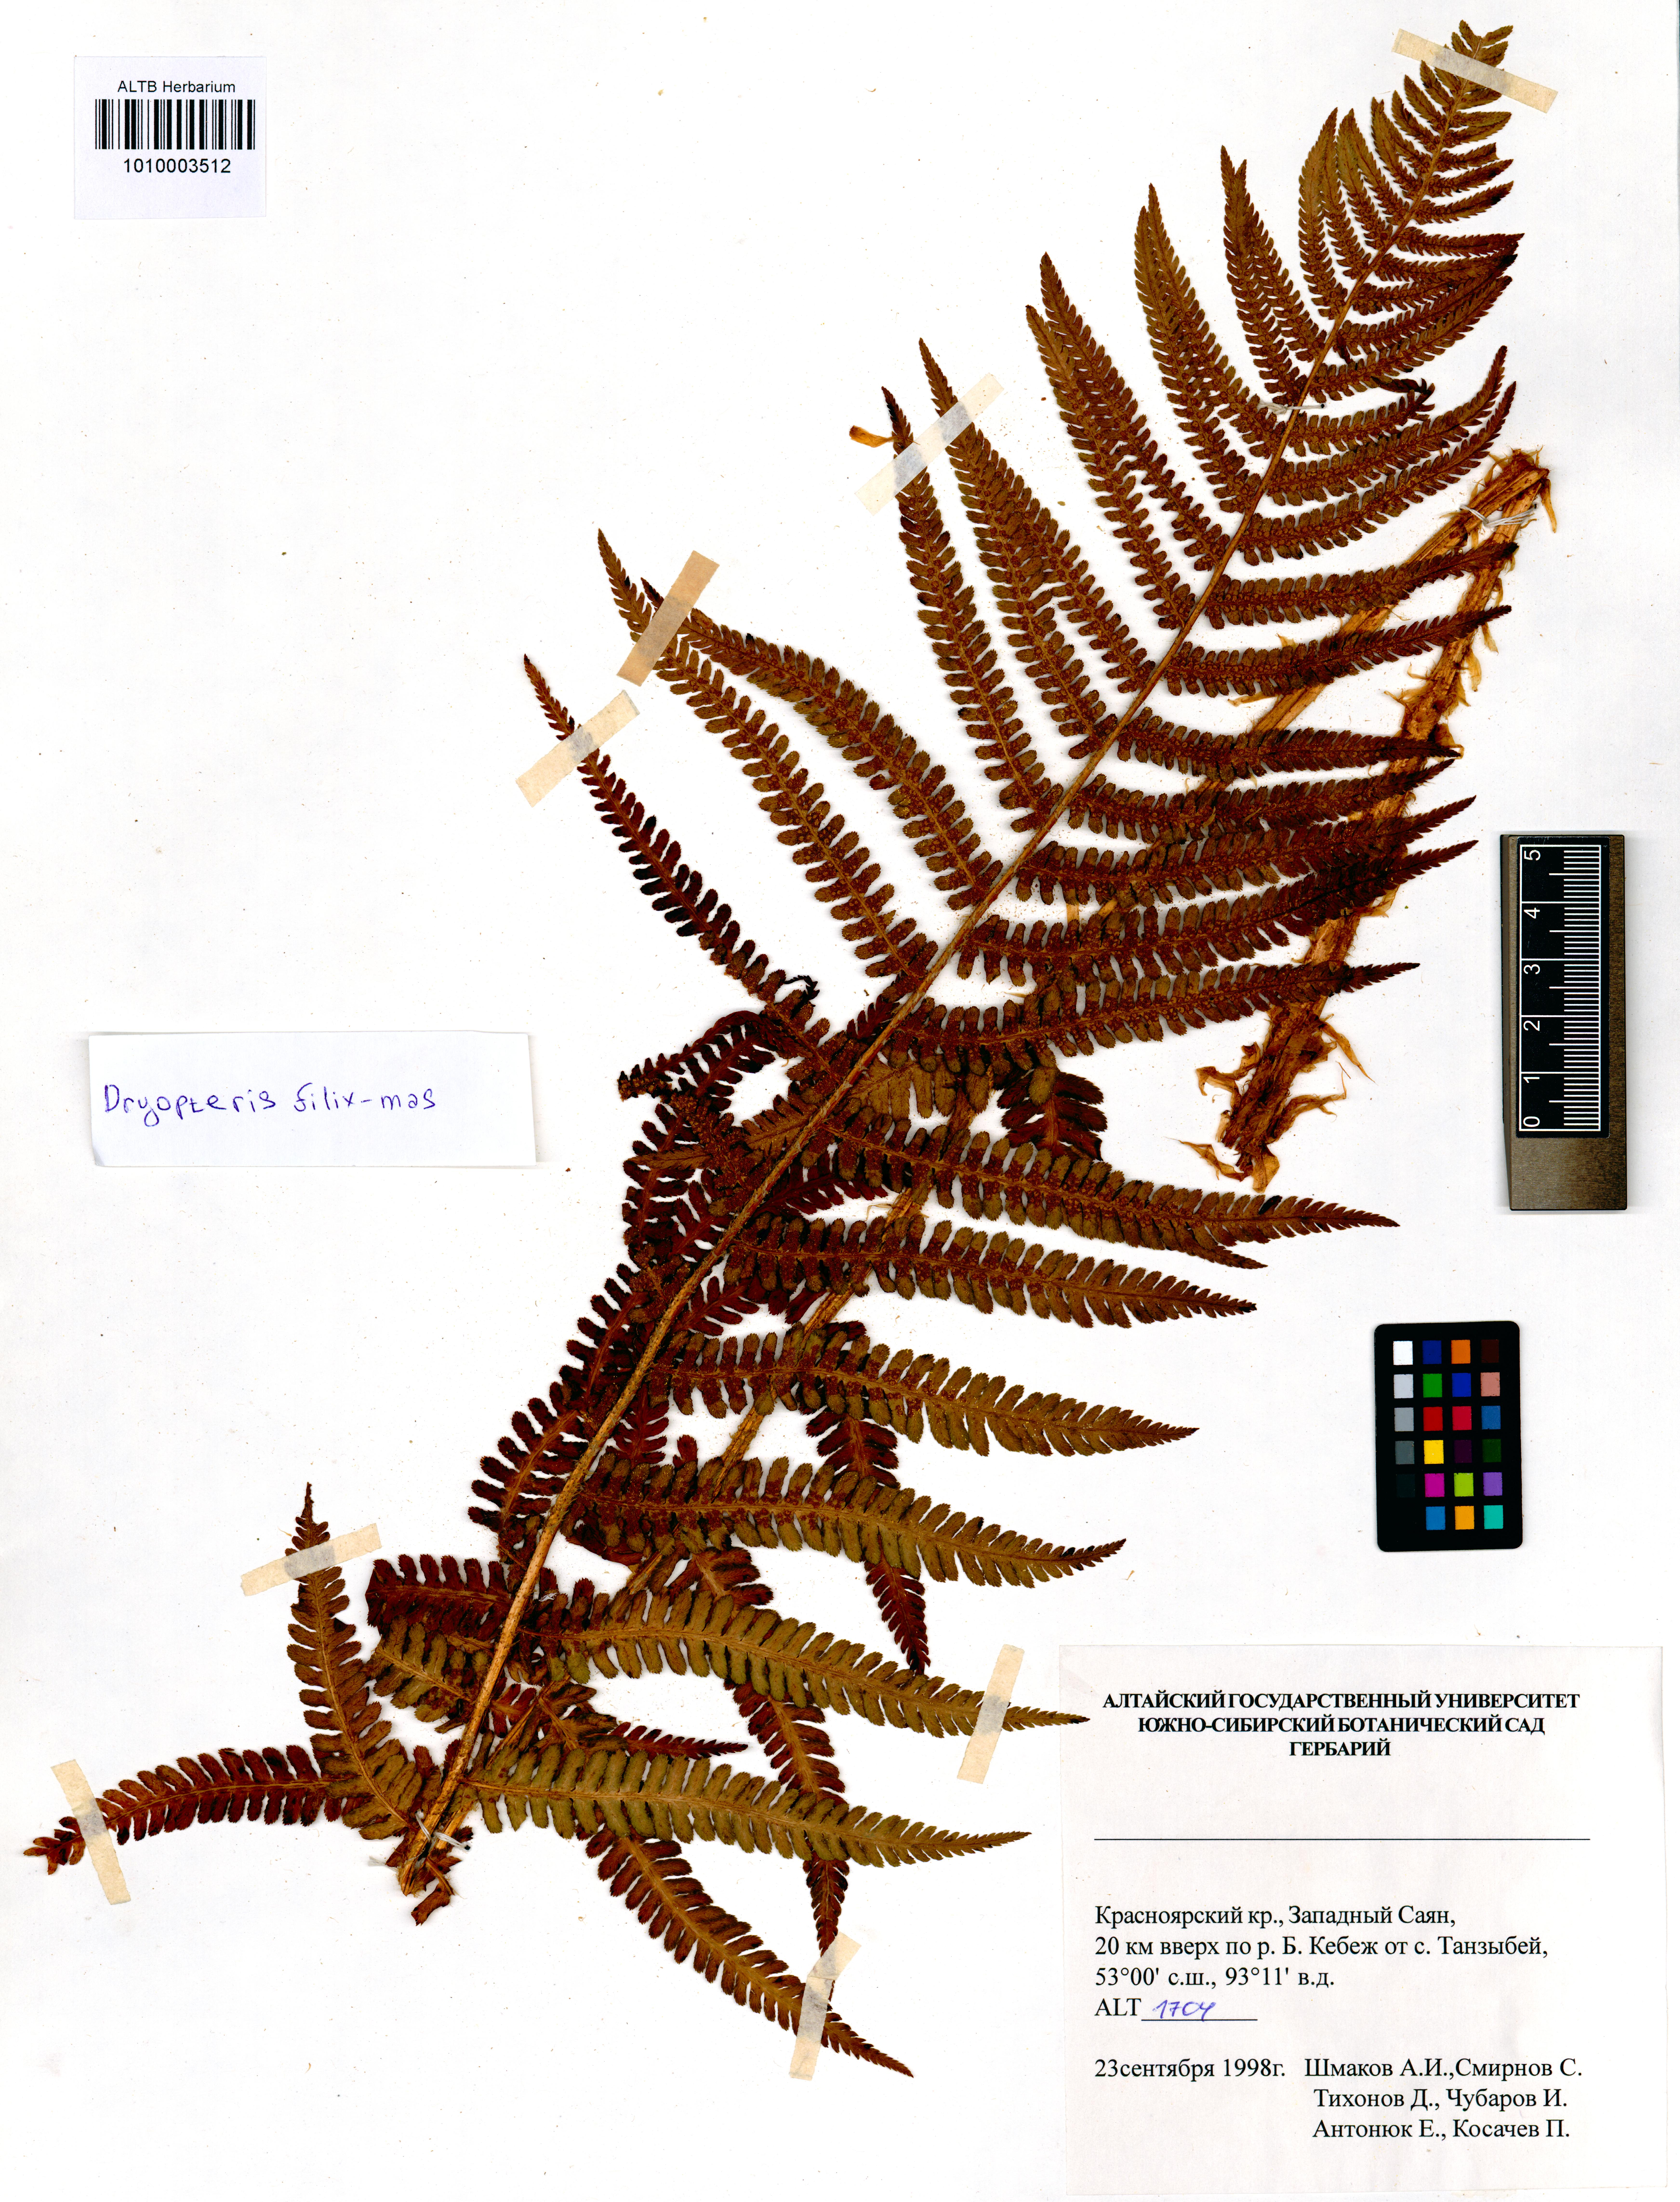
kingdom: Plantae
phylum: Tracheophyta
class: Polypodiopsida
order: Polypodiales
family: Dryopteridaceae
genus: Dryopteris
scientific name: Dryopteris filix-mas
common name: Male fern
